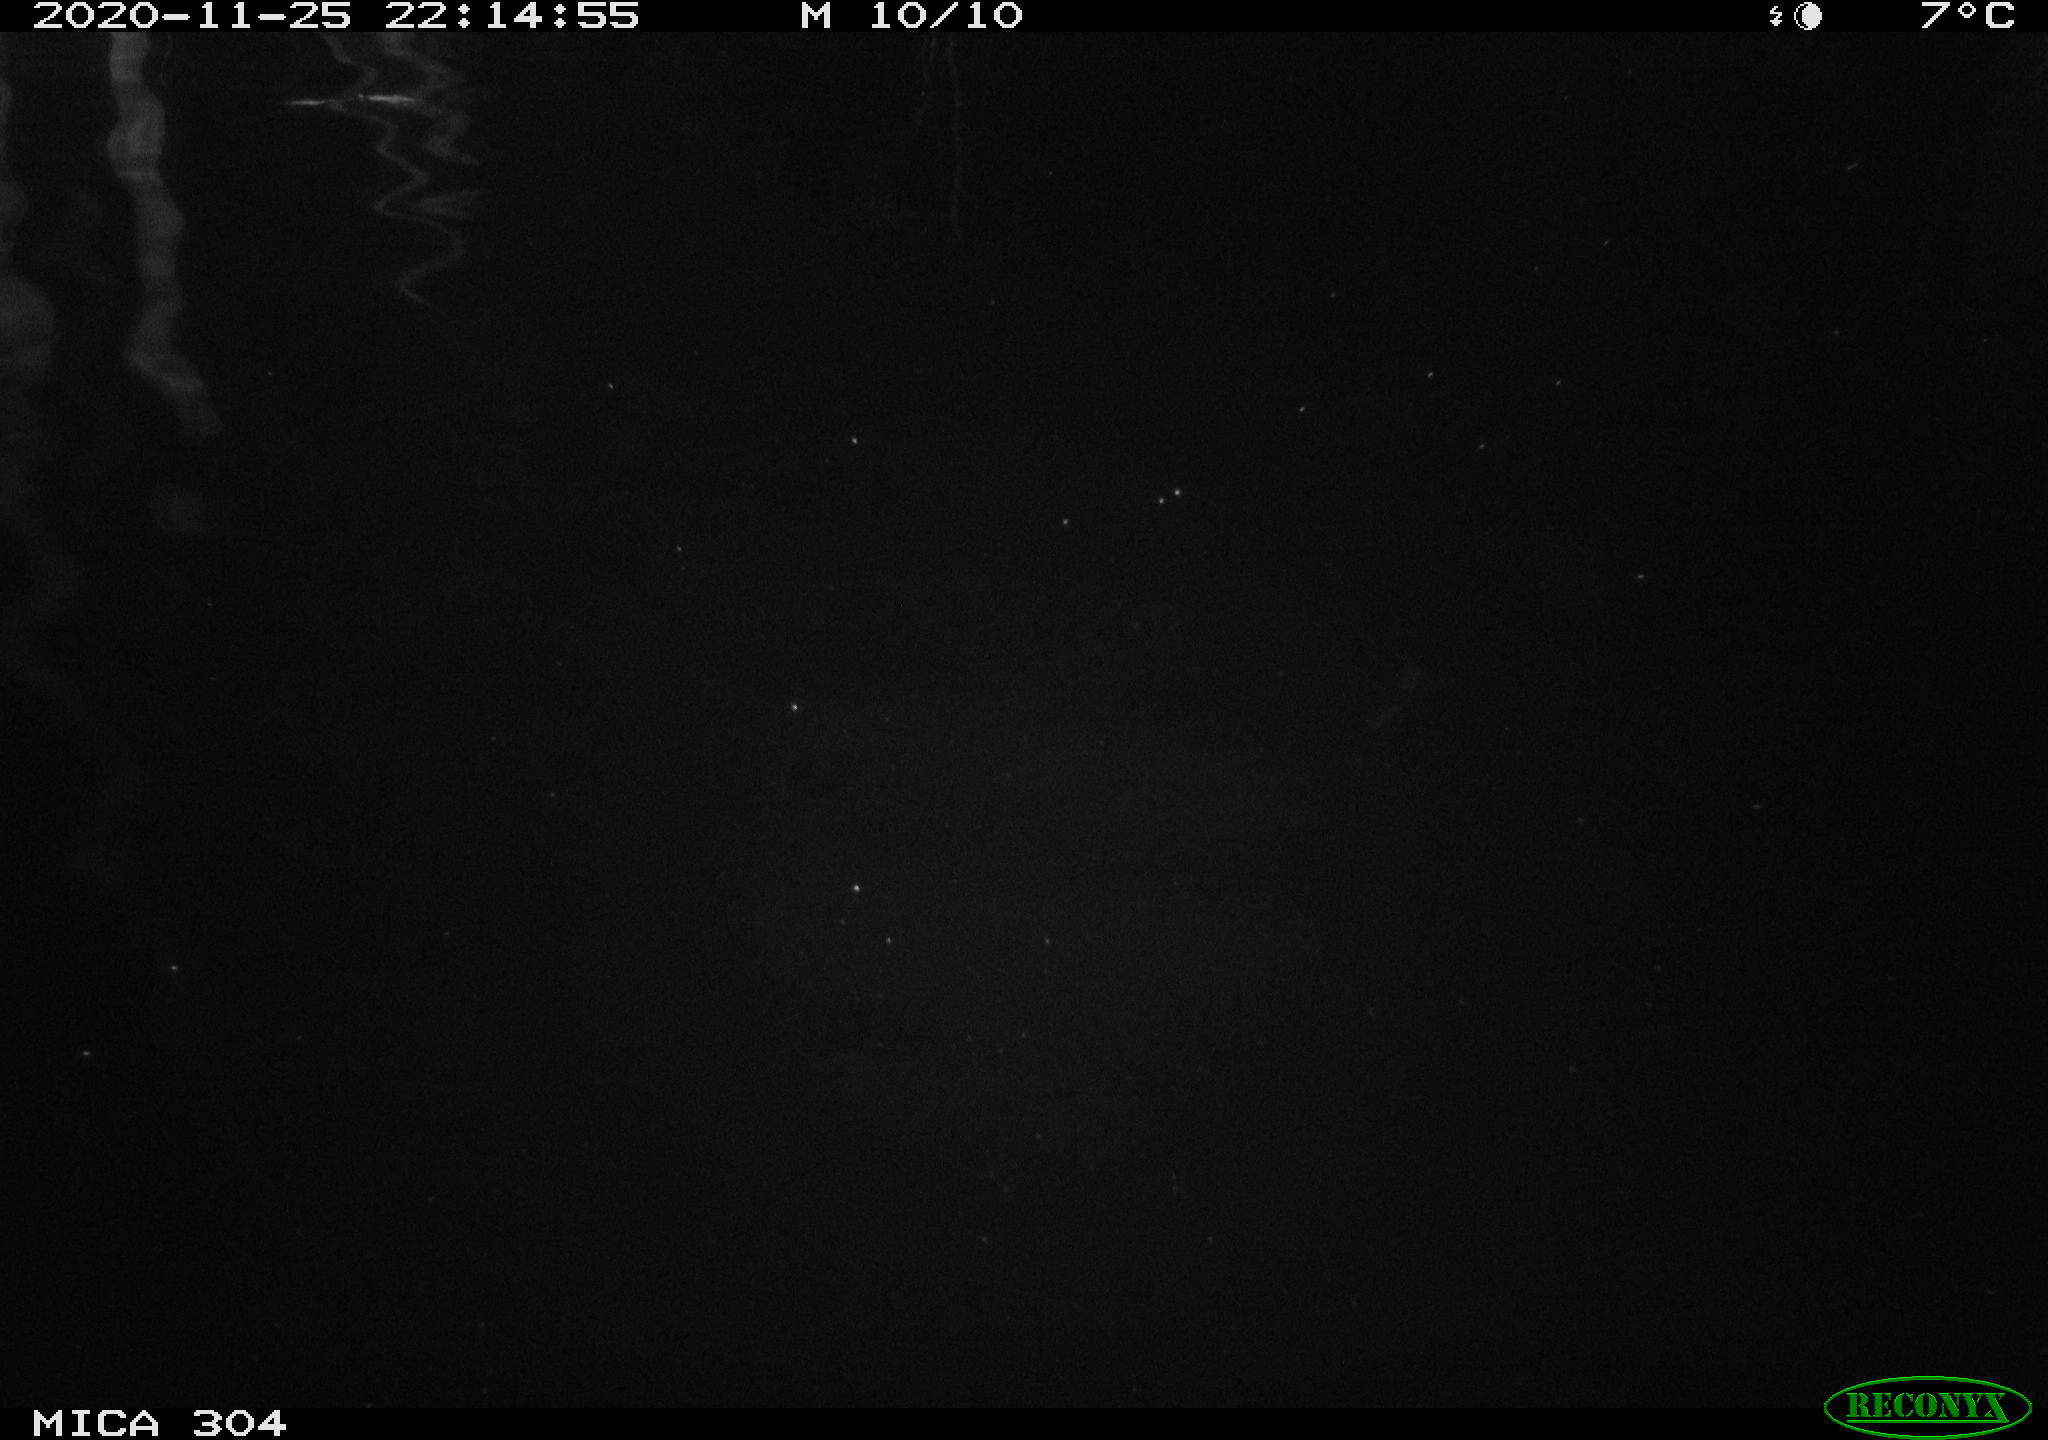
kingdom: Animalia
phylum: Chordata
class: Aves
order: Anseriformes
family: Anatidae
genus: Anas
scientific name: Anas platyrhynchos
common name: Mallard
